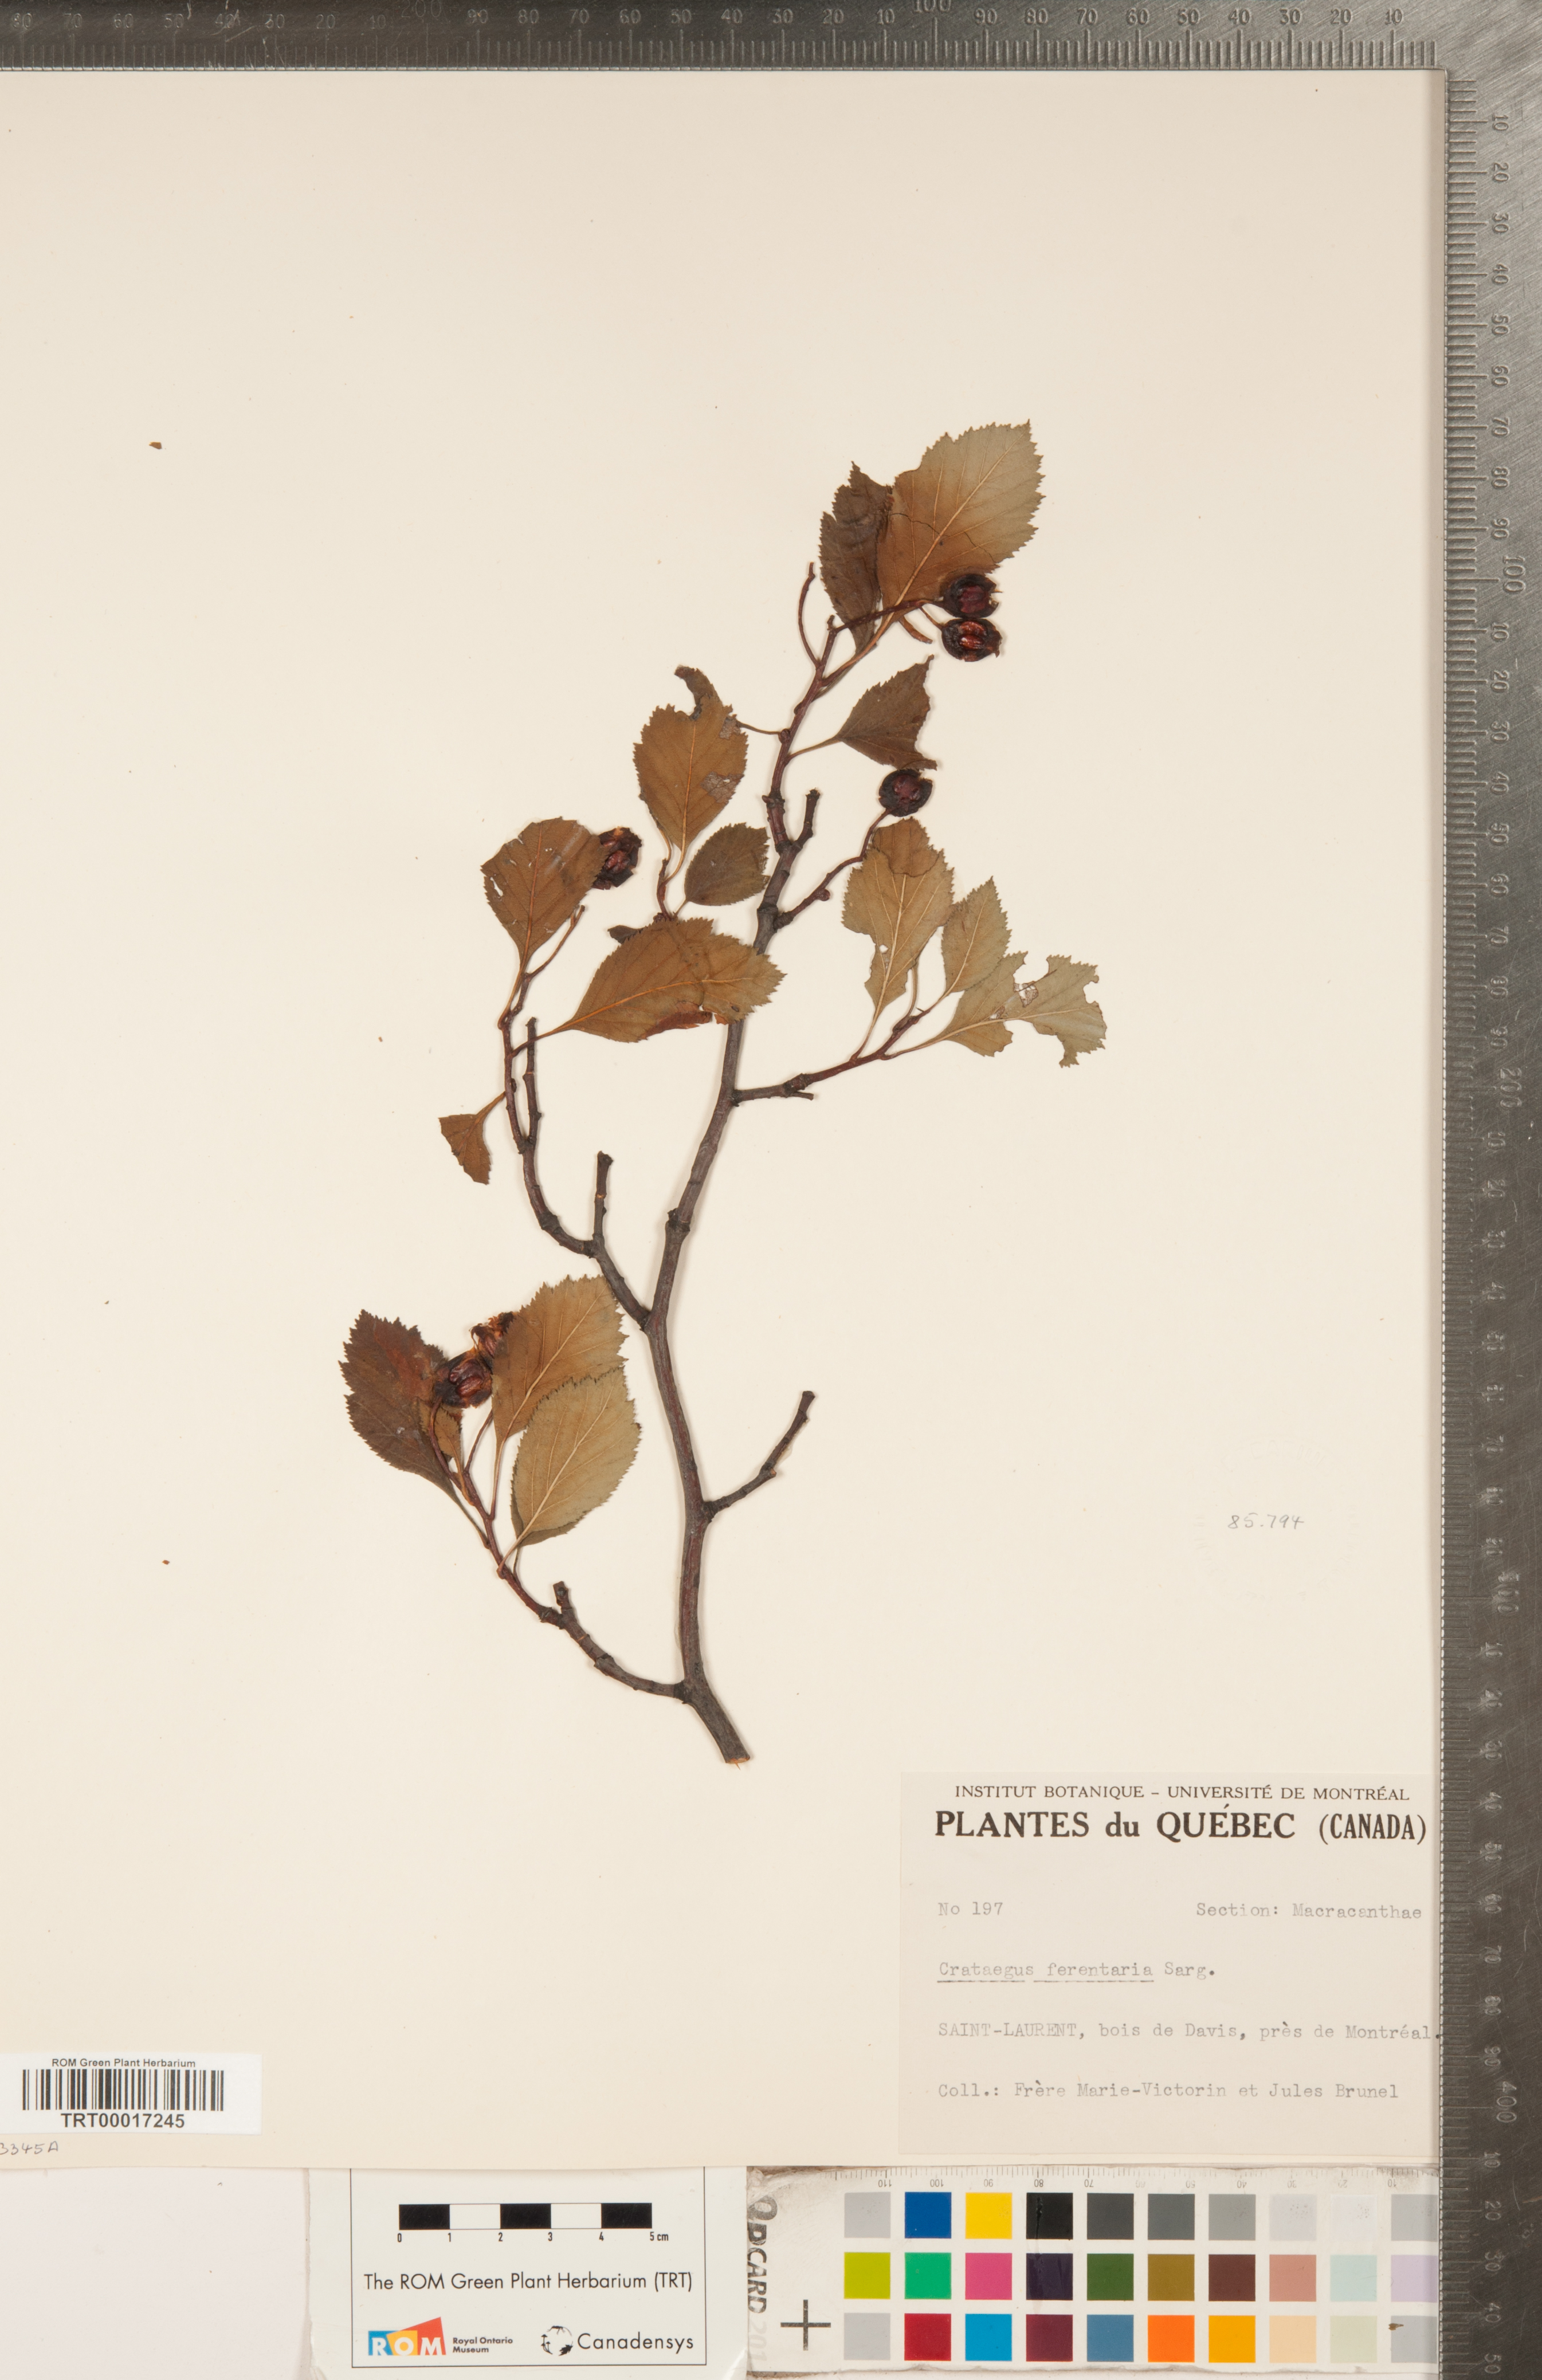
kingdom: Plantae
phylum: Tracheophyta
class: Magnoliopsida
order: Rosales
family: Rosaceae
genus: Crataegus
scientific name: Crataegus macracantha
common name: Large-thorn hawthorn
